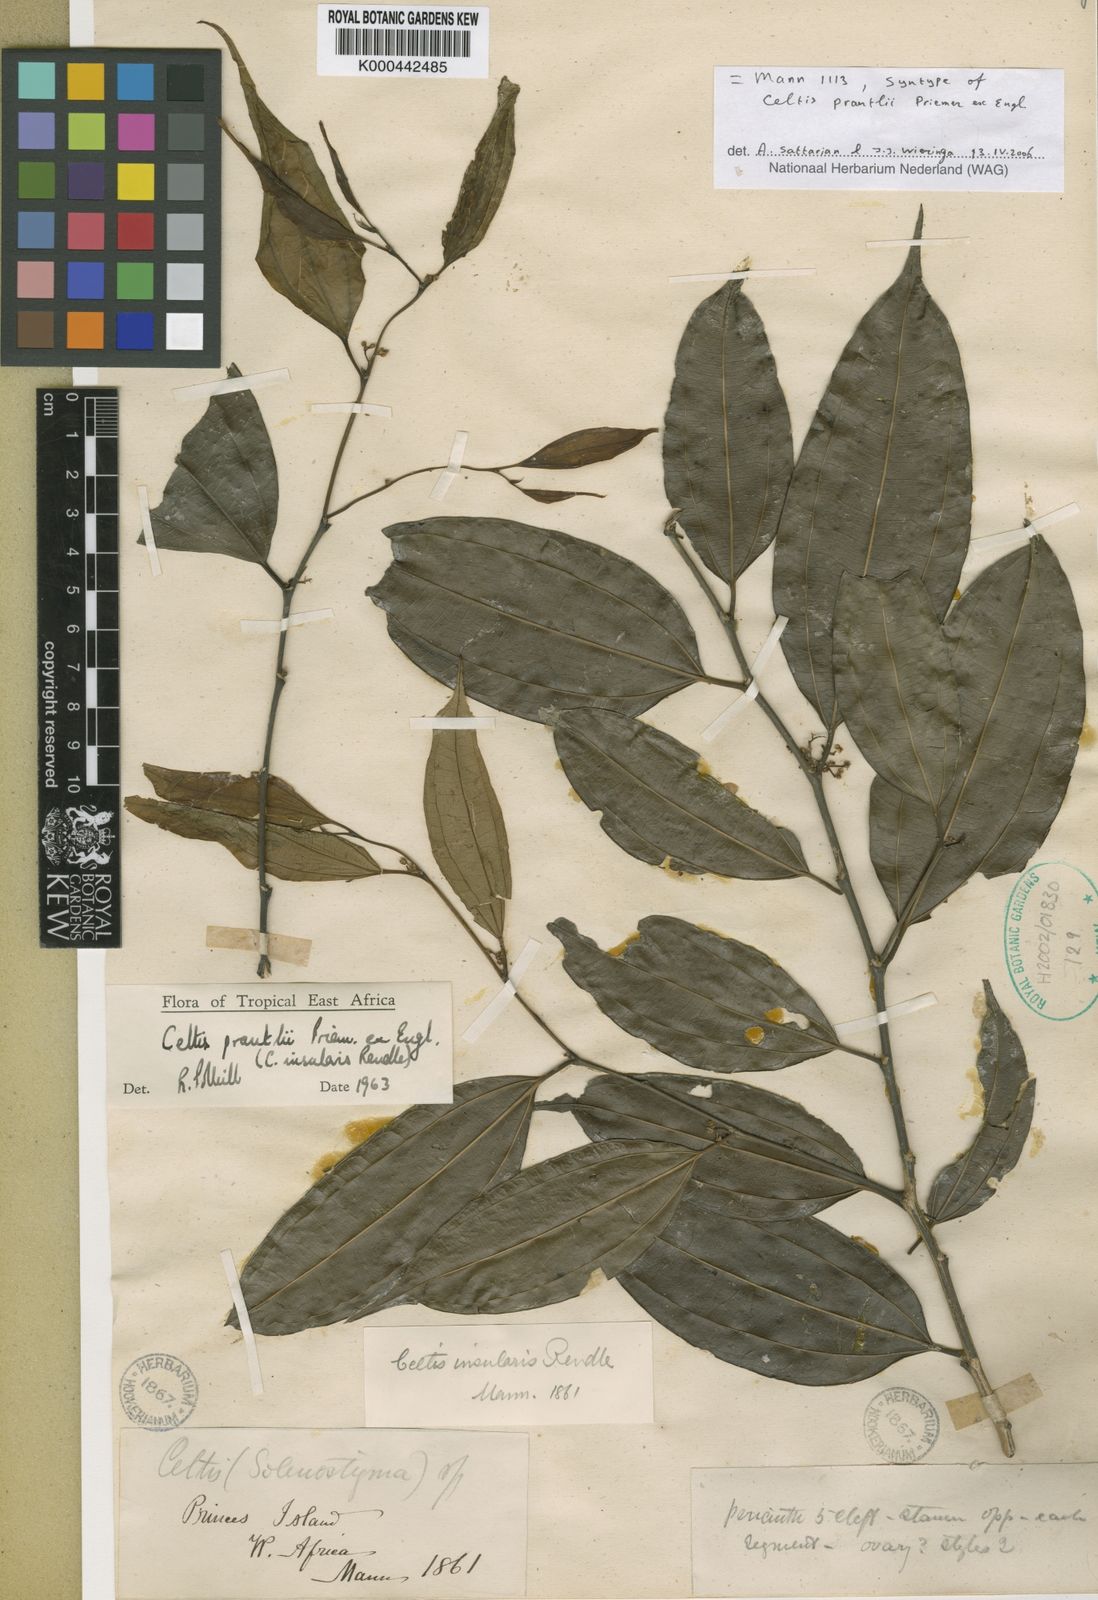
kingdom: Plantae
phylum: Tracheophyta
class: Magnoliopsida
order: Rosales
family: Cannabaceae
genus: Celtis
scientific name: Celtis philippensis
